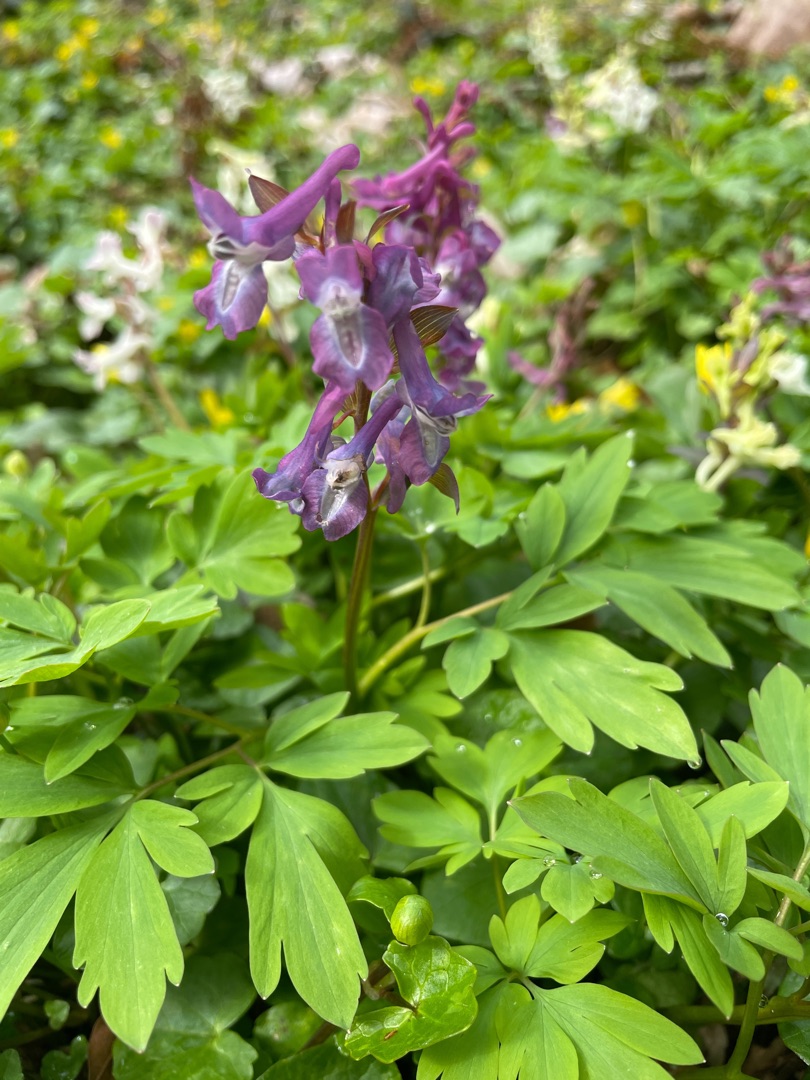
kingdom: Plantae
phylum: Tracheophyta
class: Magnoliopsida
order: Ranunculales
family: Papaveraceae
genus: Corydalis
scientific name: Corydalis cava
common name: Hulrodet lærkespore
